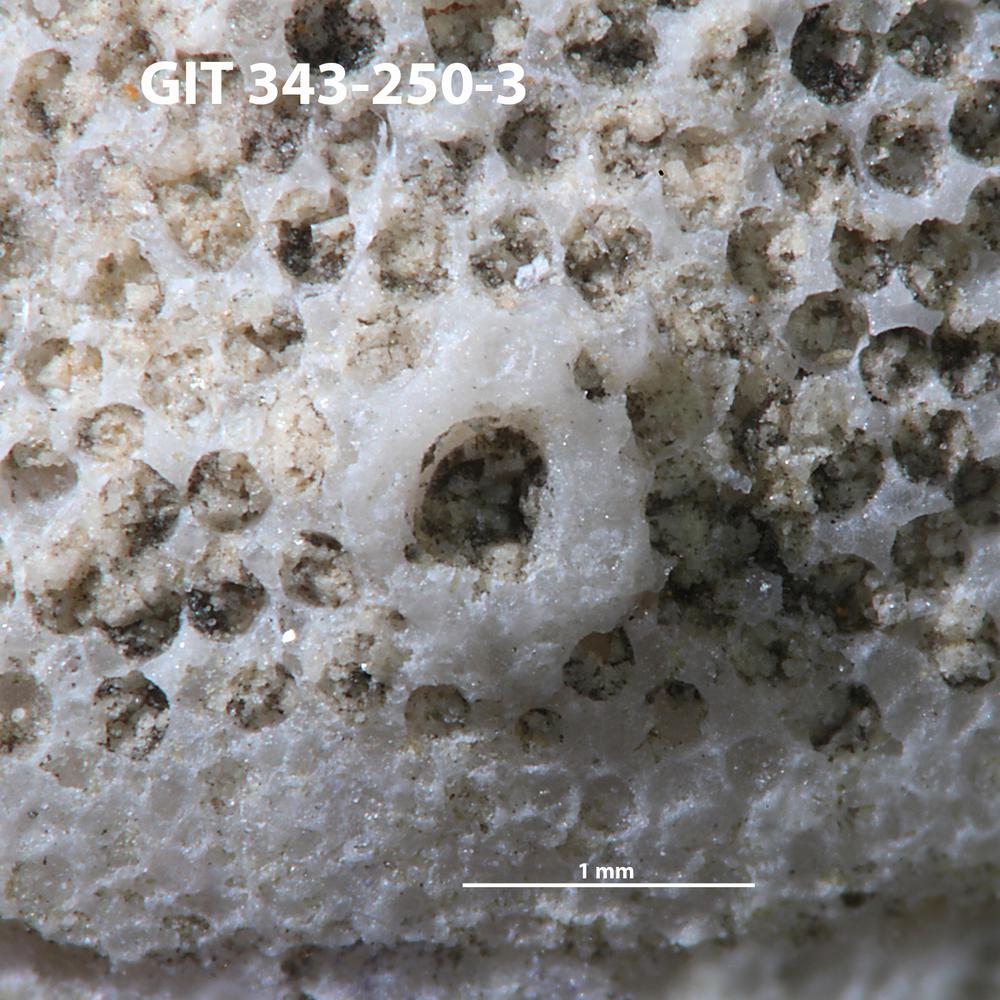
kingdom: Animalia
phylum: Annelida
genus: Anoigmaichnus
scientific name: Anoigmaichnus
